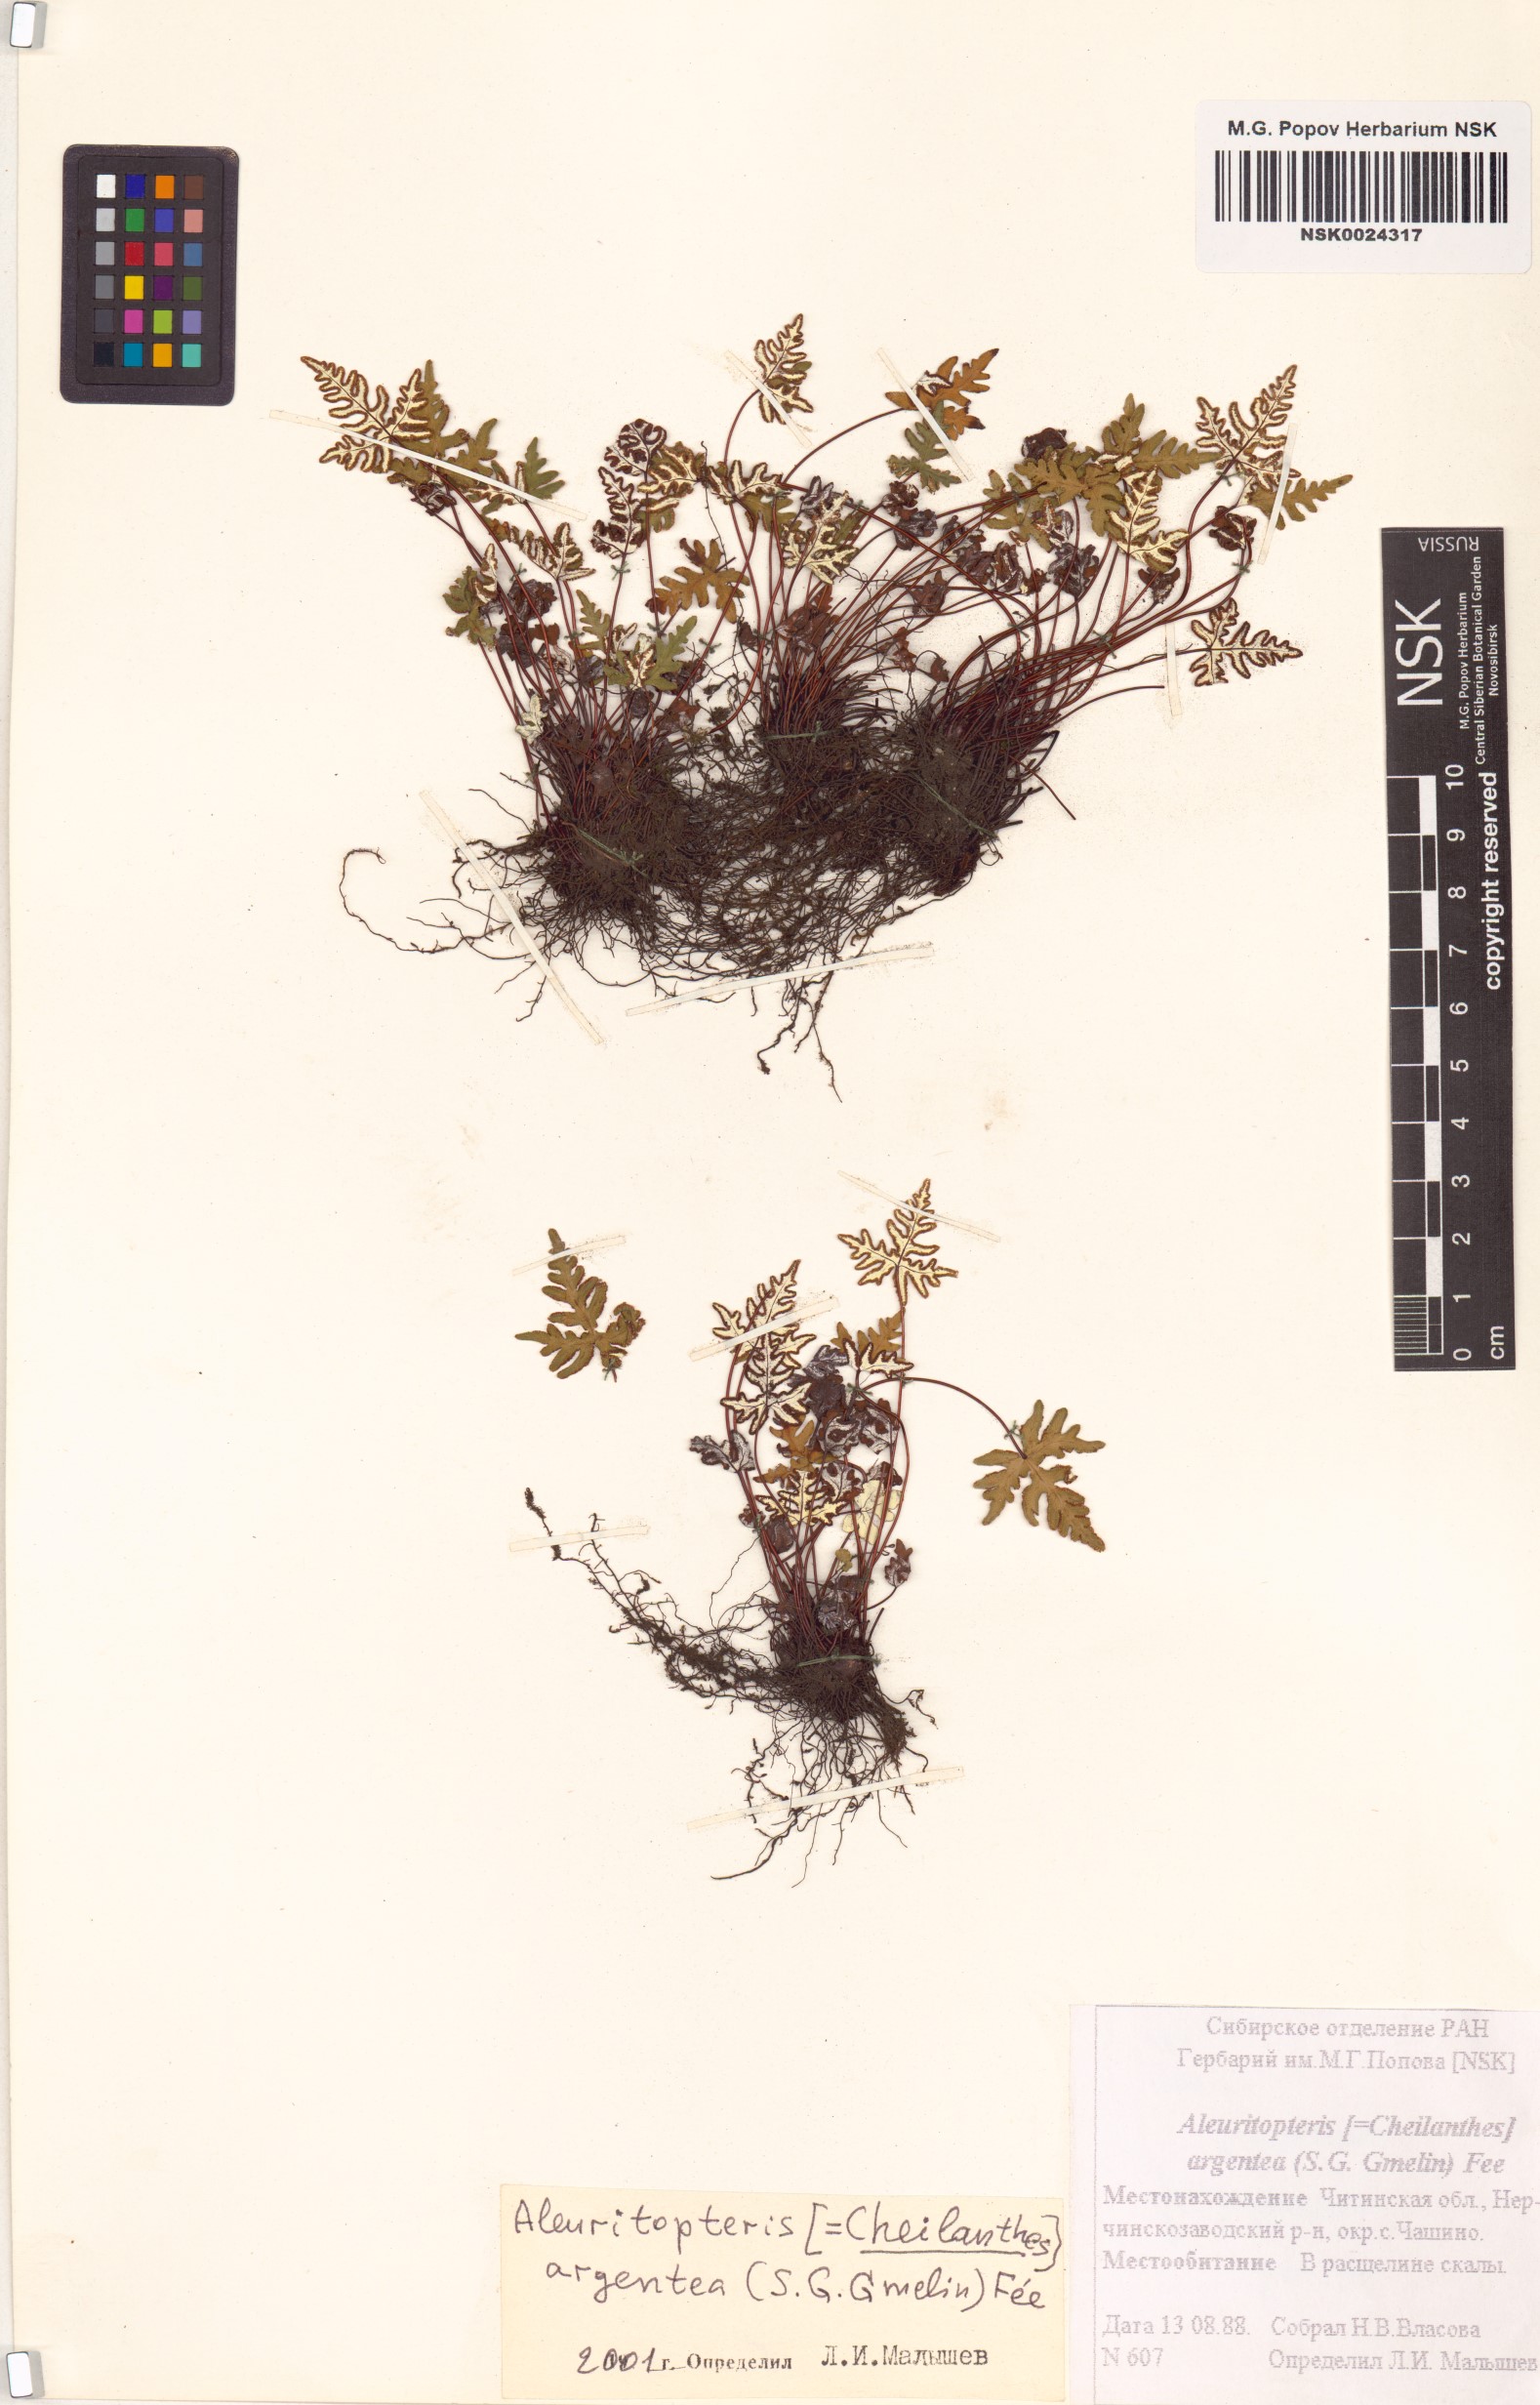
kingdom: Plantae
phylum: Tracheophyta
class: Polypodiopsida
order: Polypodiales
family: Pteridaceae
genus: Aleuritopteris
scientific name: Aleuritopteris argentea
